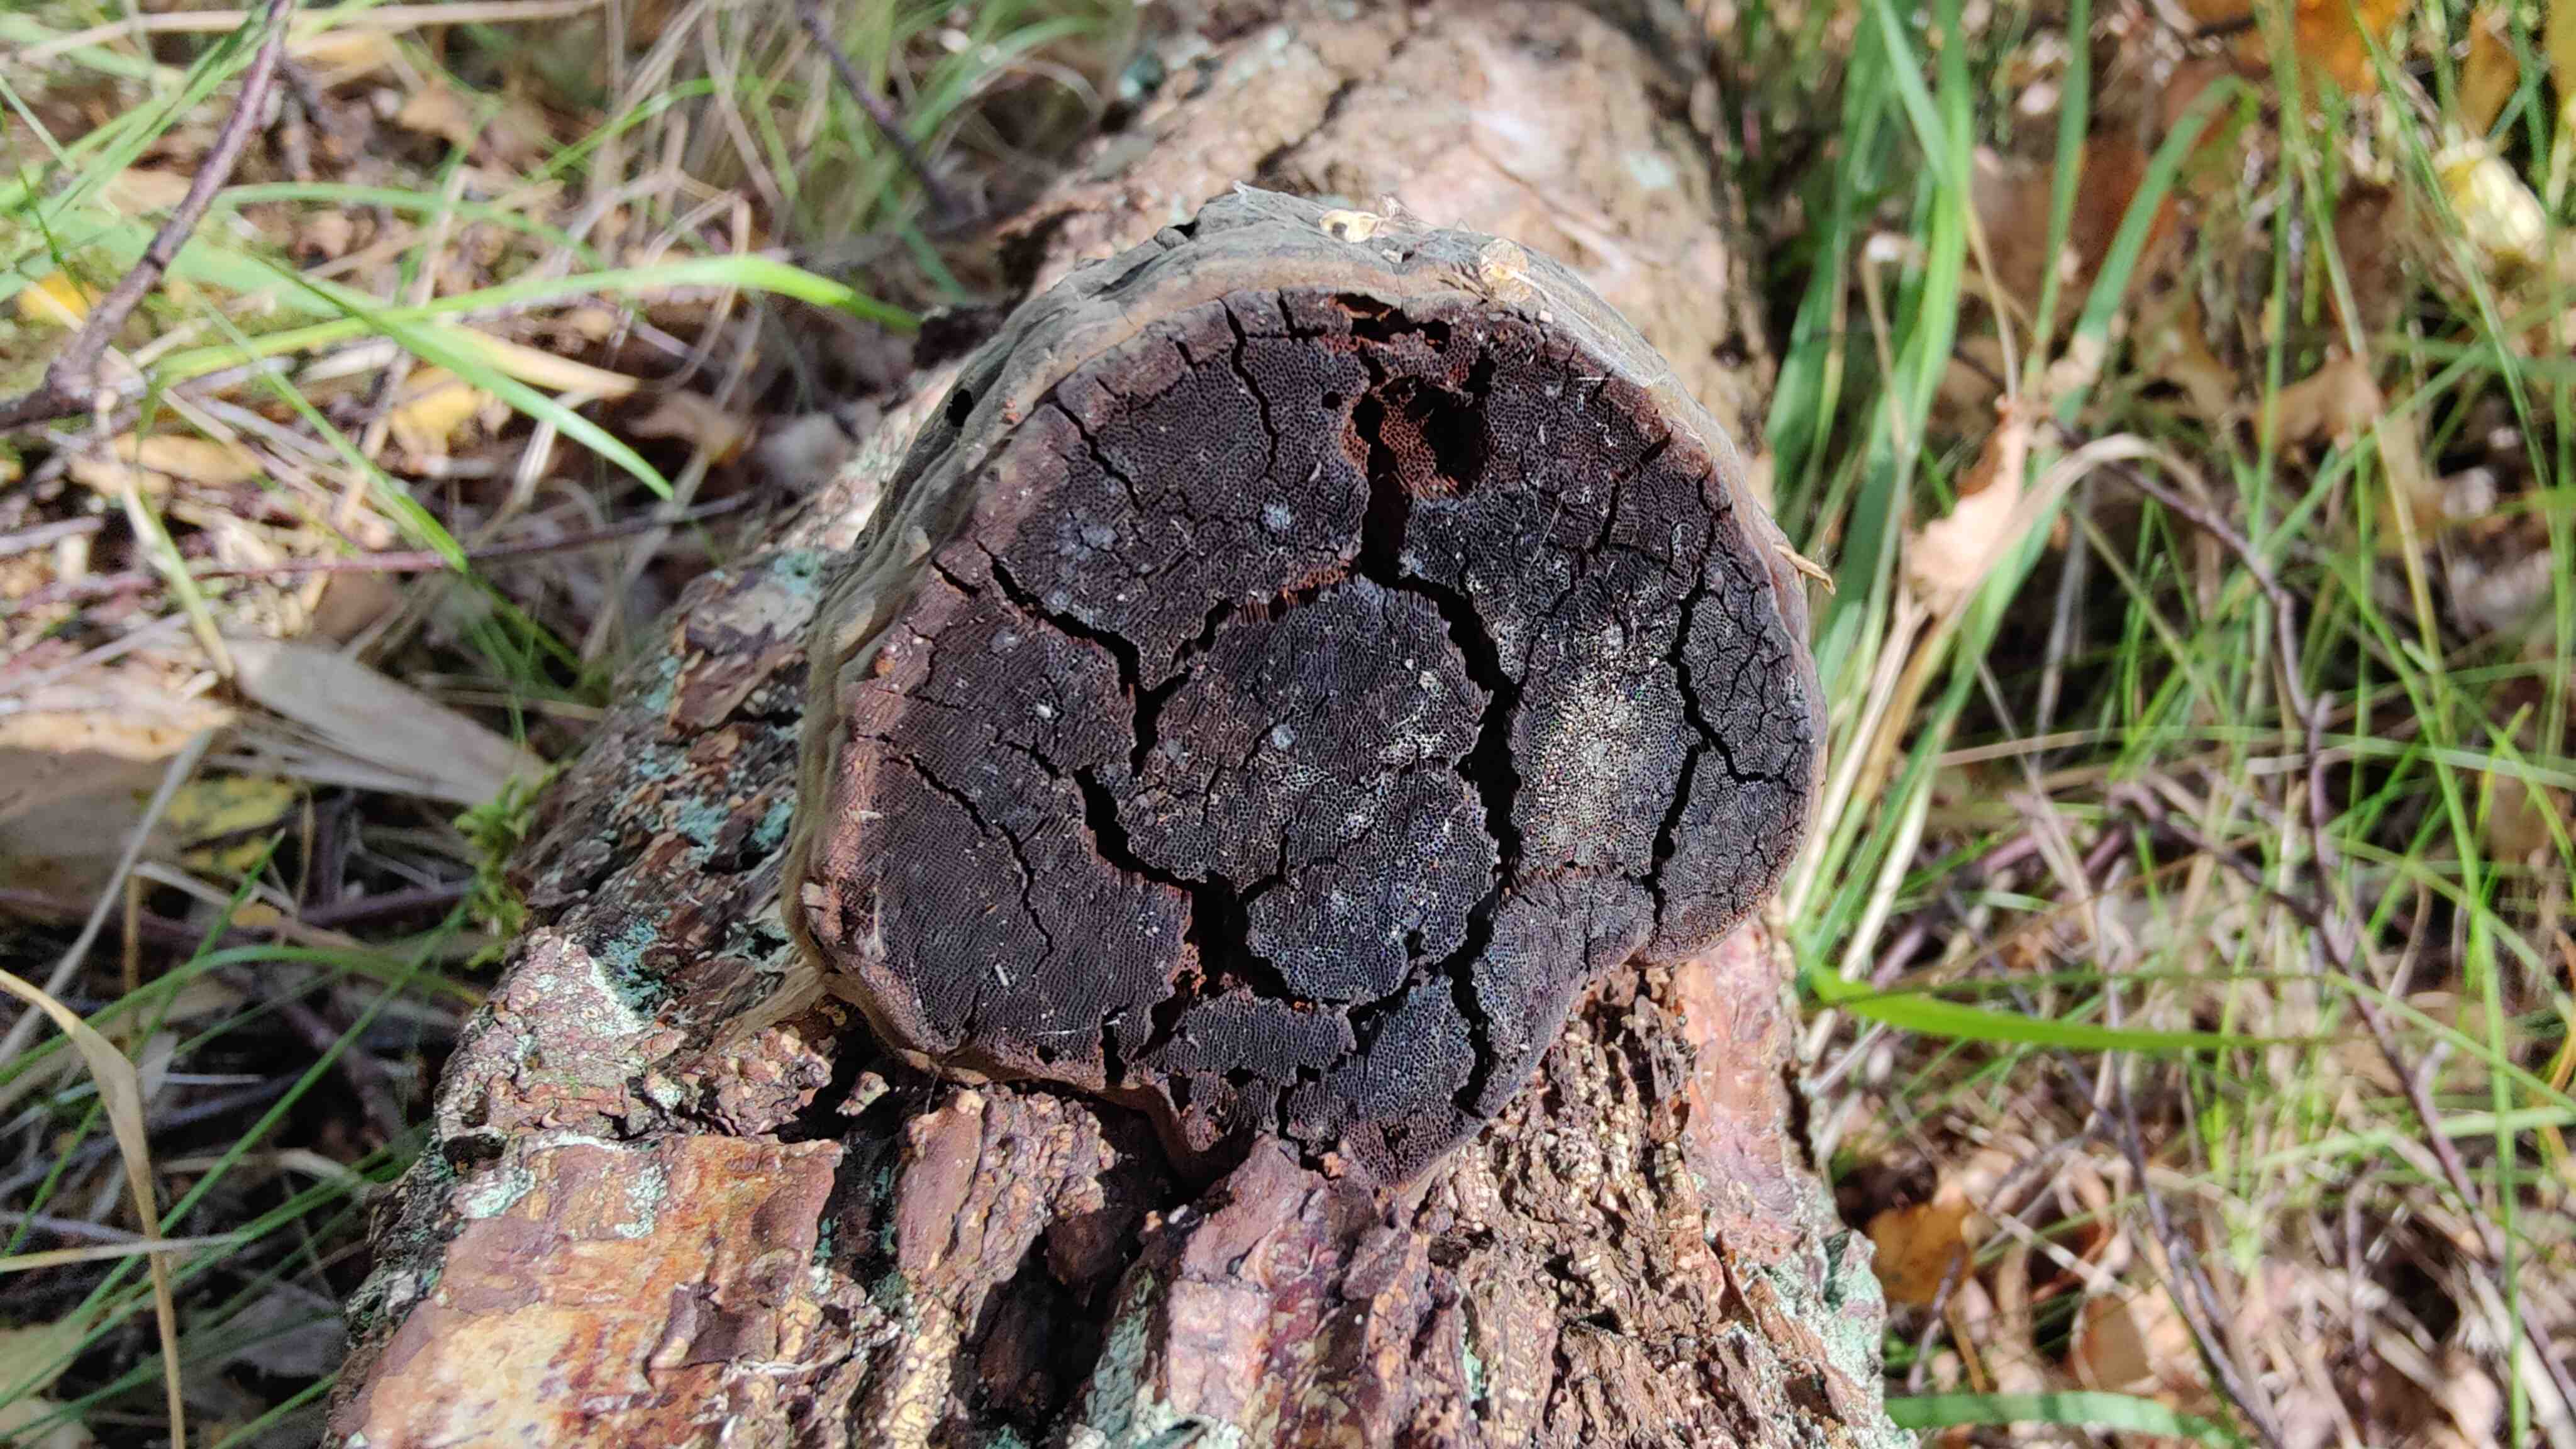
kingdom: Fungi
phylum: Basidiomycota
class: Agaricomycetes
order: Polyporales
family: Polyporaceae
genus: Fomes
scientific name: Fomes fomentarius
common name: tøndersvamp
